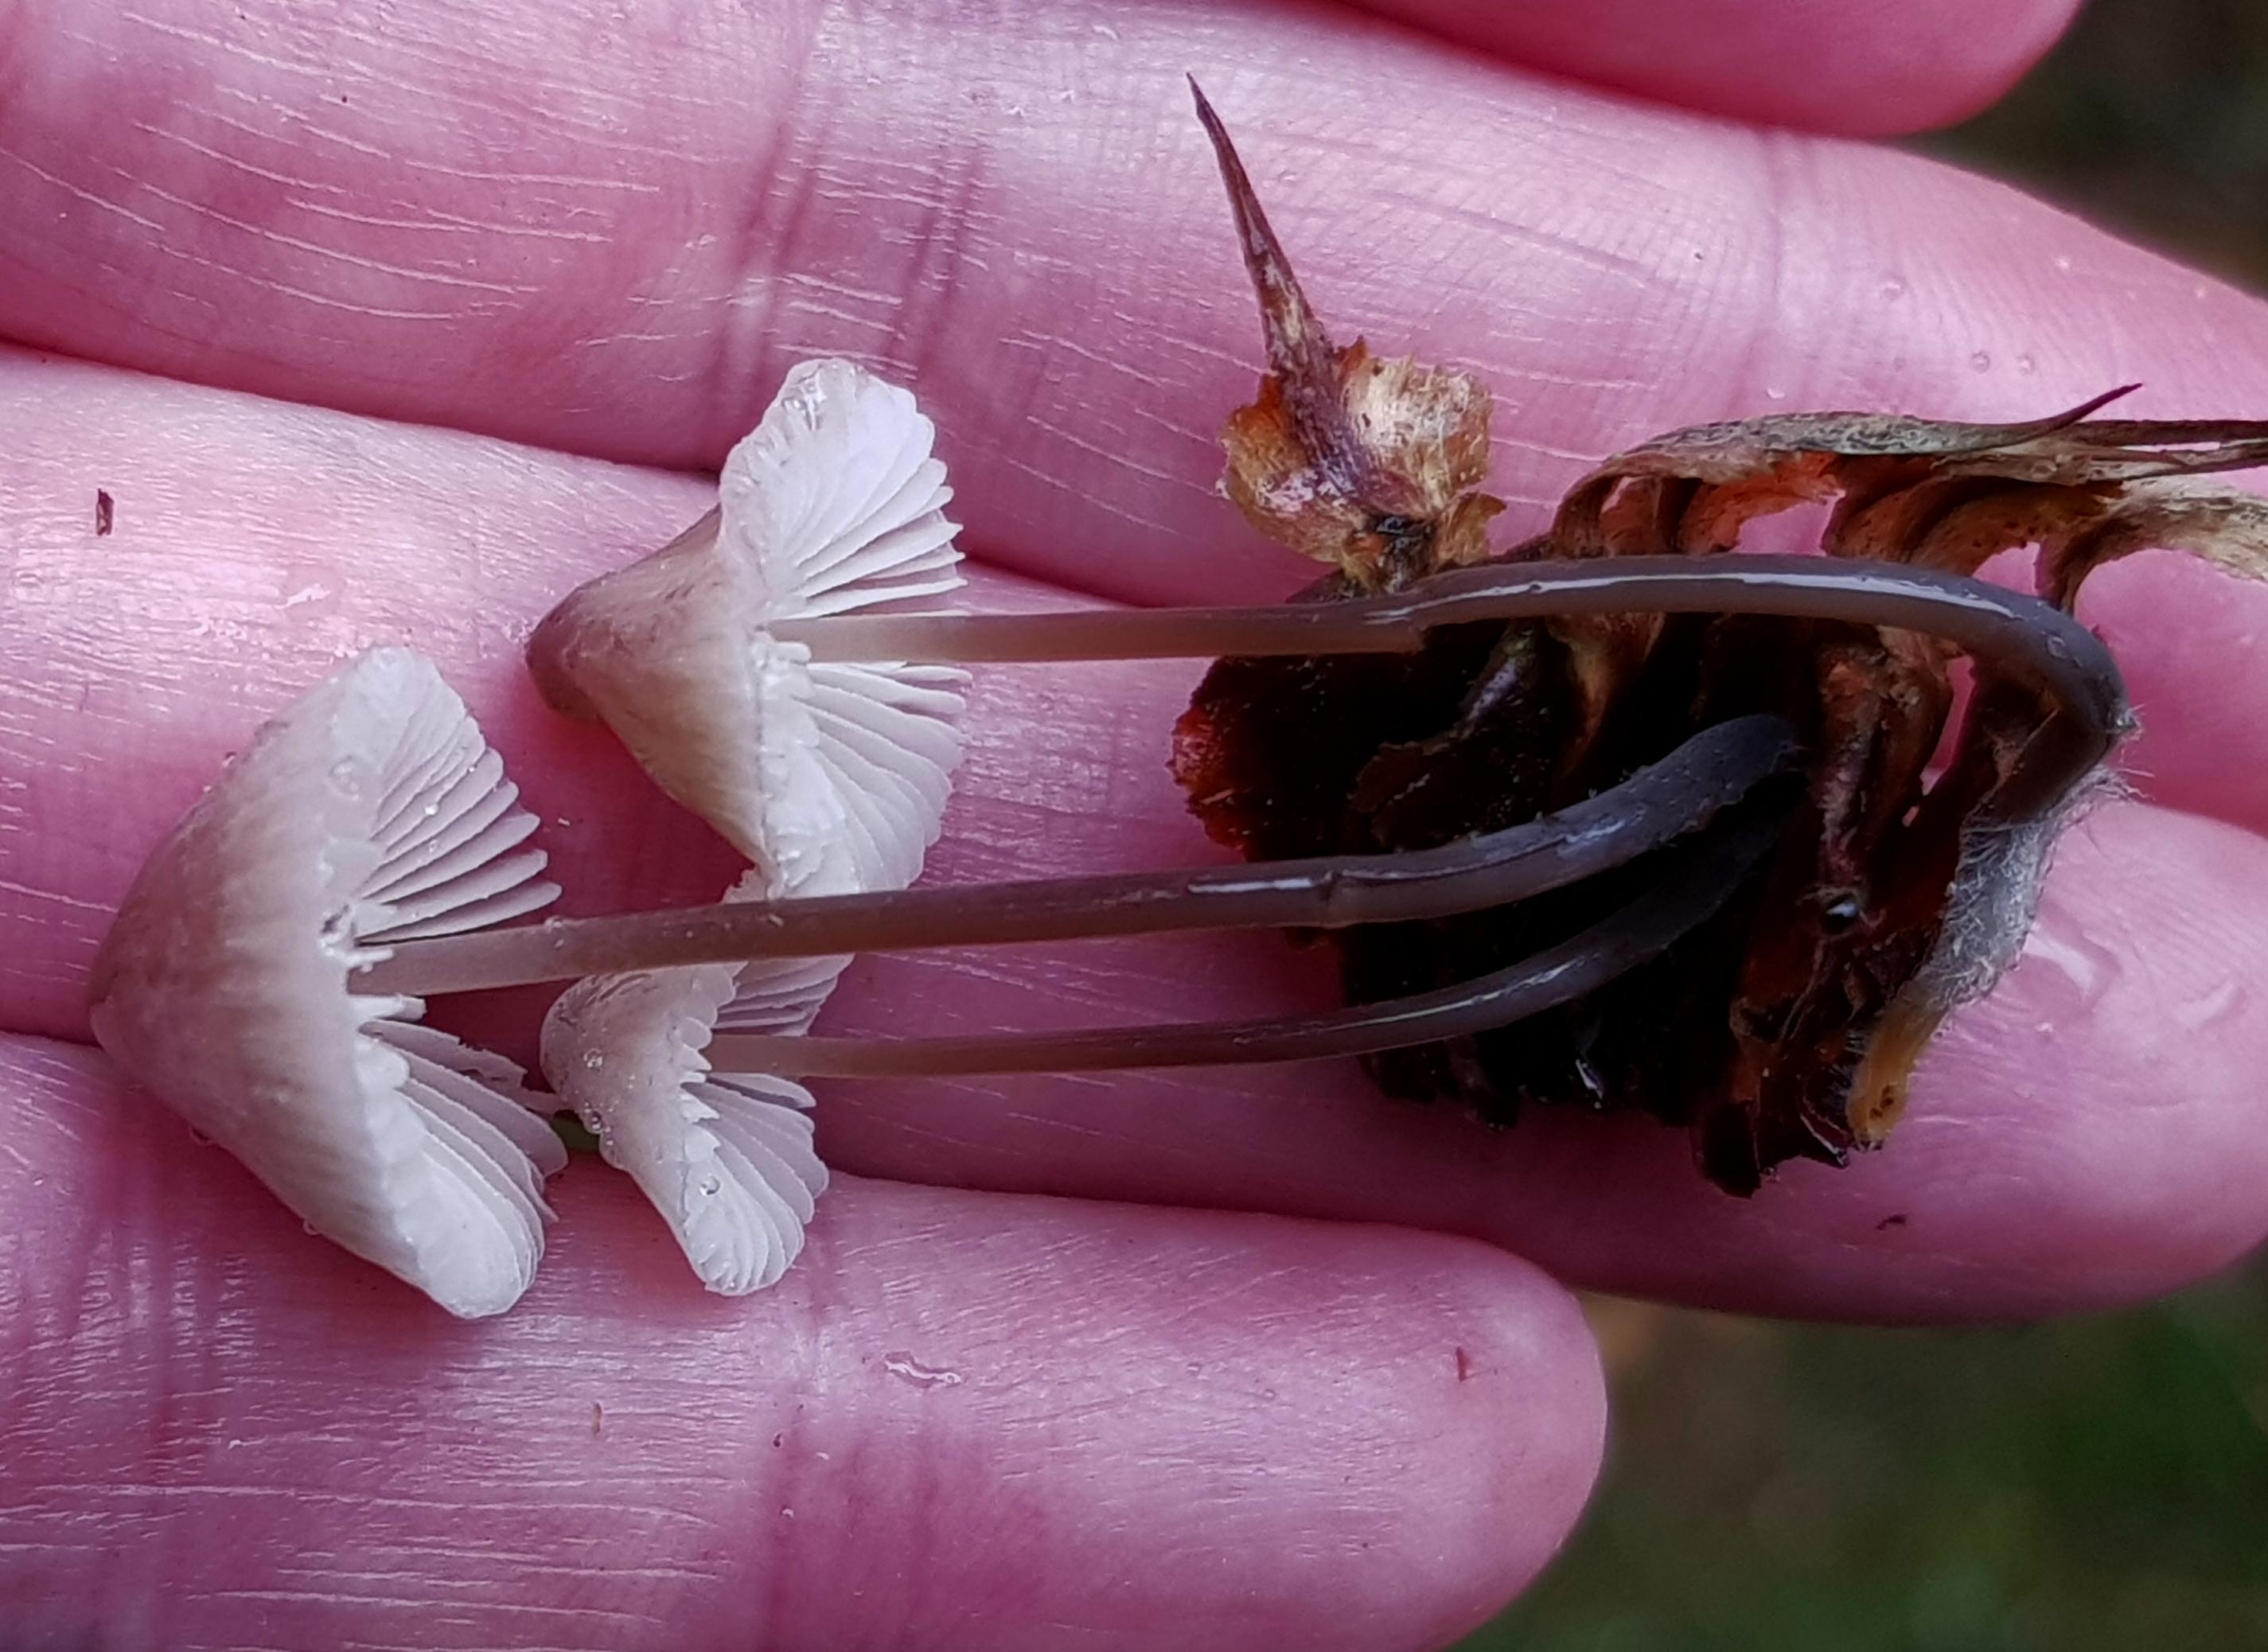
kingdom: Fungi
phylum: Basidiomycota
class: Agaricomycetes
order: Agaricales
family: Mycenaceae
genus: Mycena
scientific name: Mycena filopes
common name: jod-huesvamp
